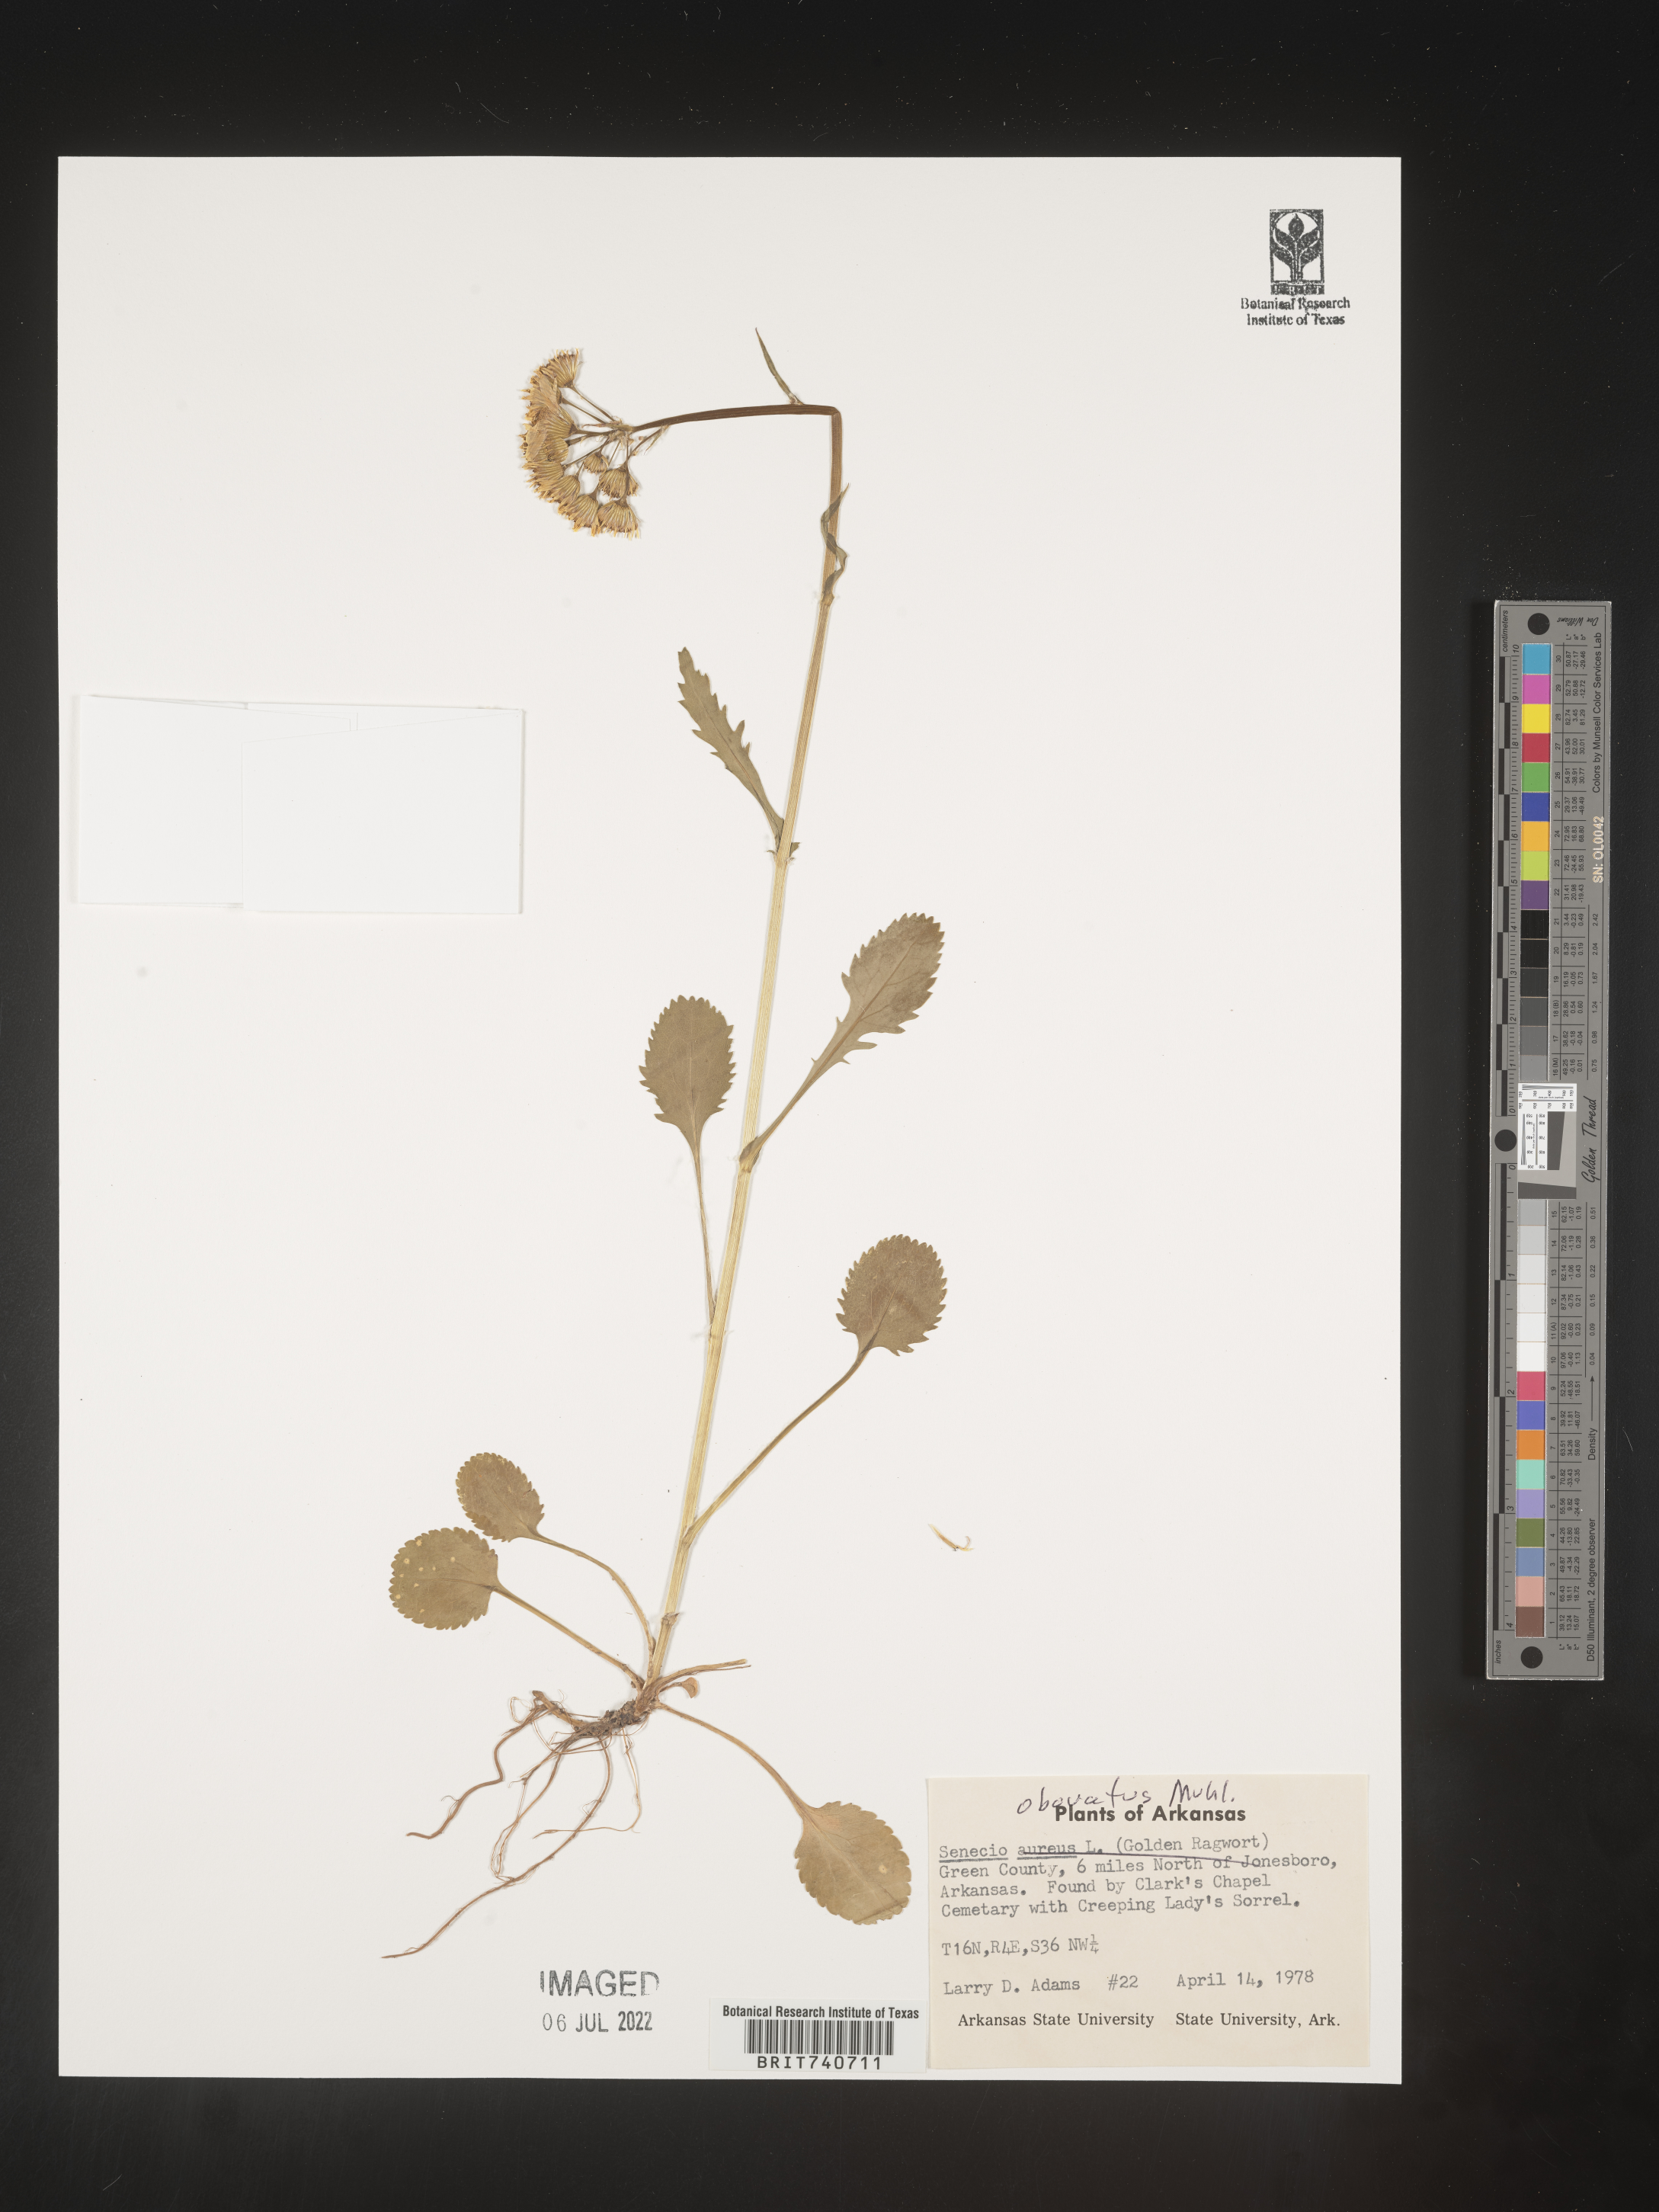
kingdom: Plantae
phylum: Tracheophyta
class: Magnoliopsida
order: Asterales
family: Asteraceae
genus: Senecio
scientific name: Senecio
